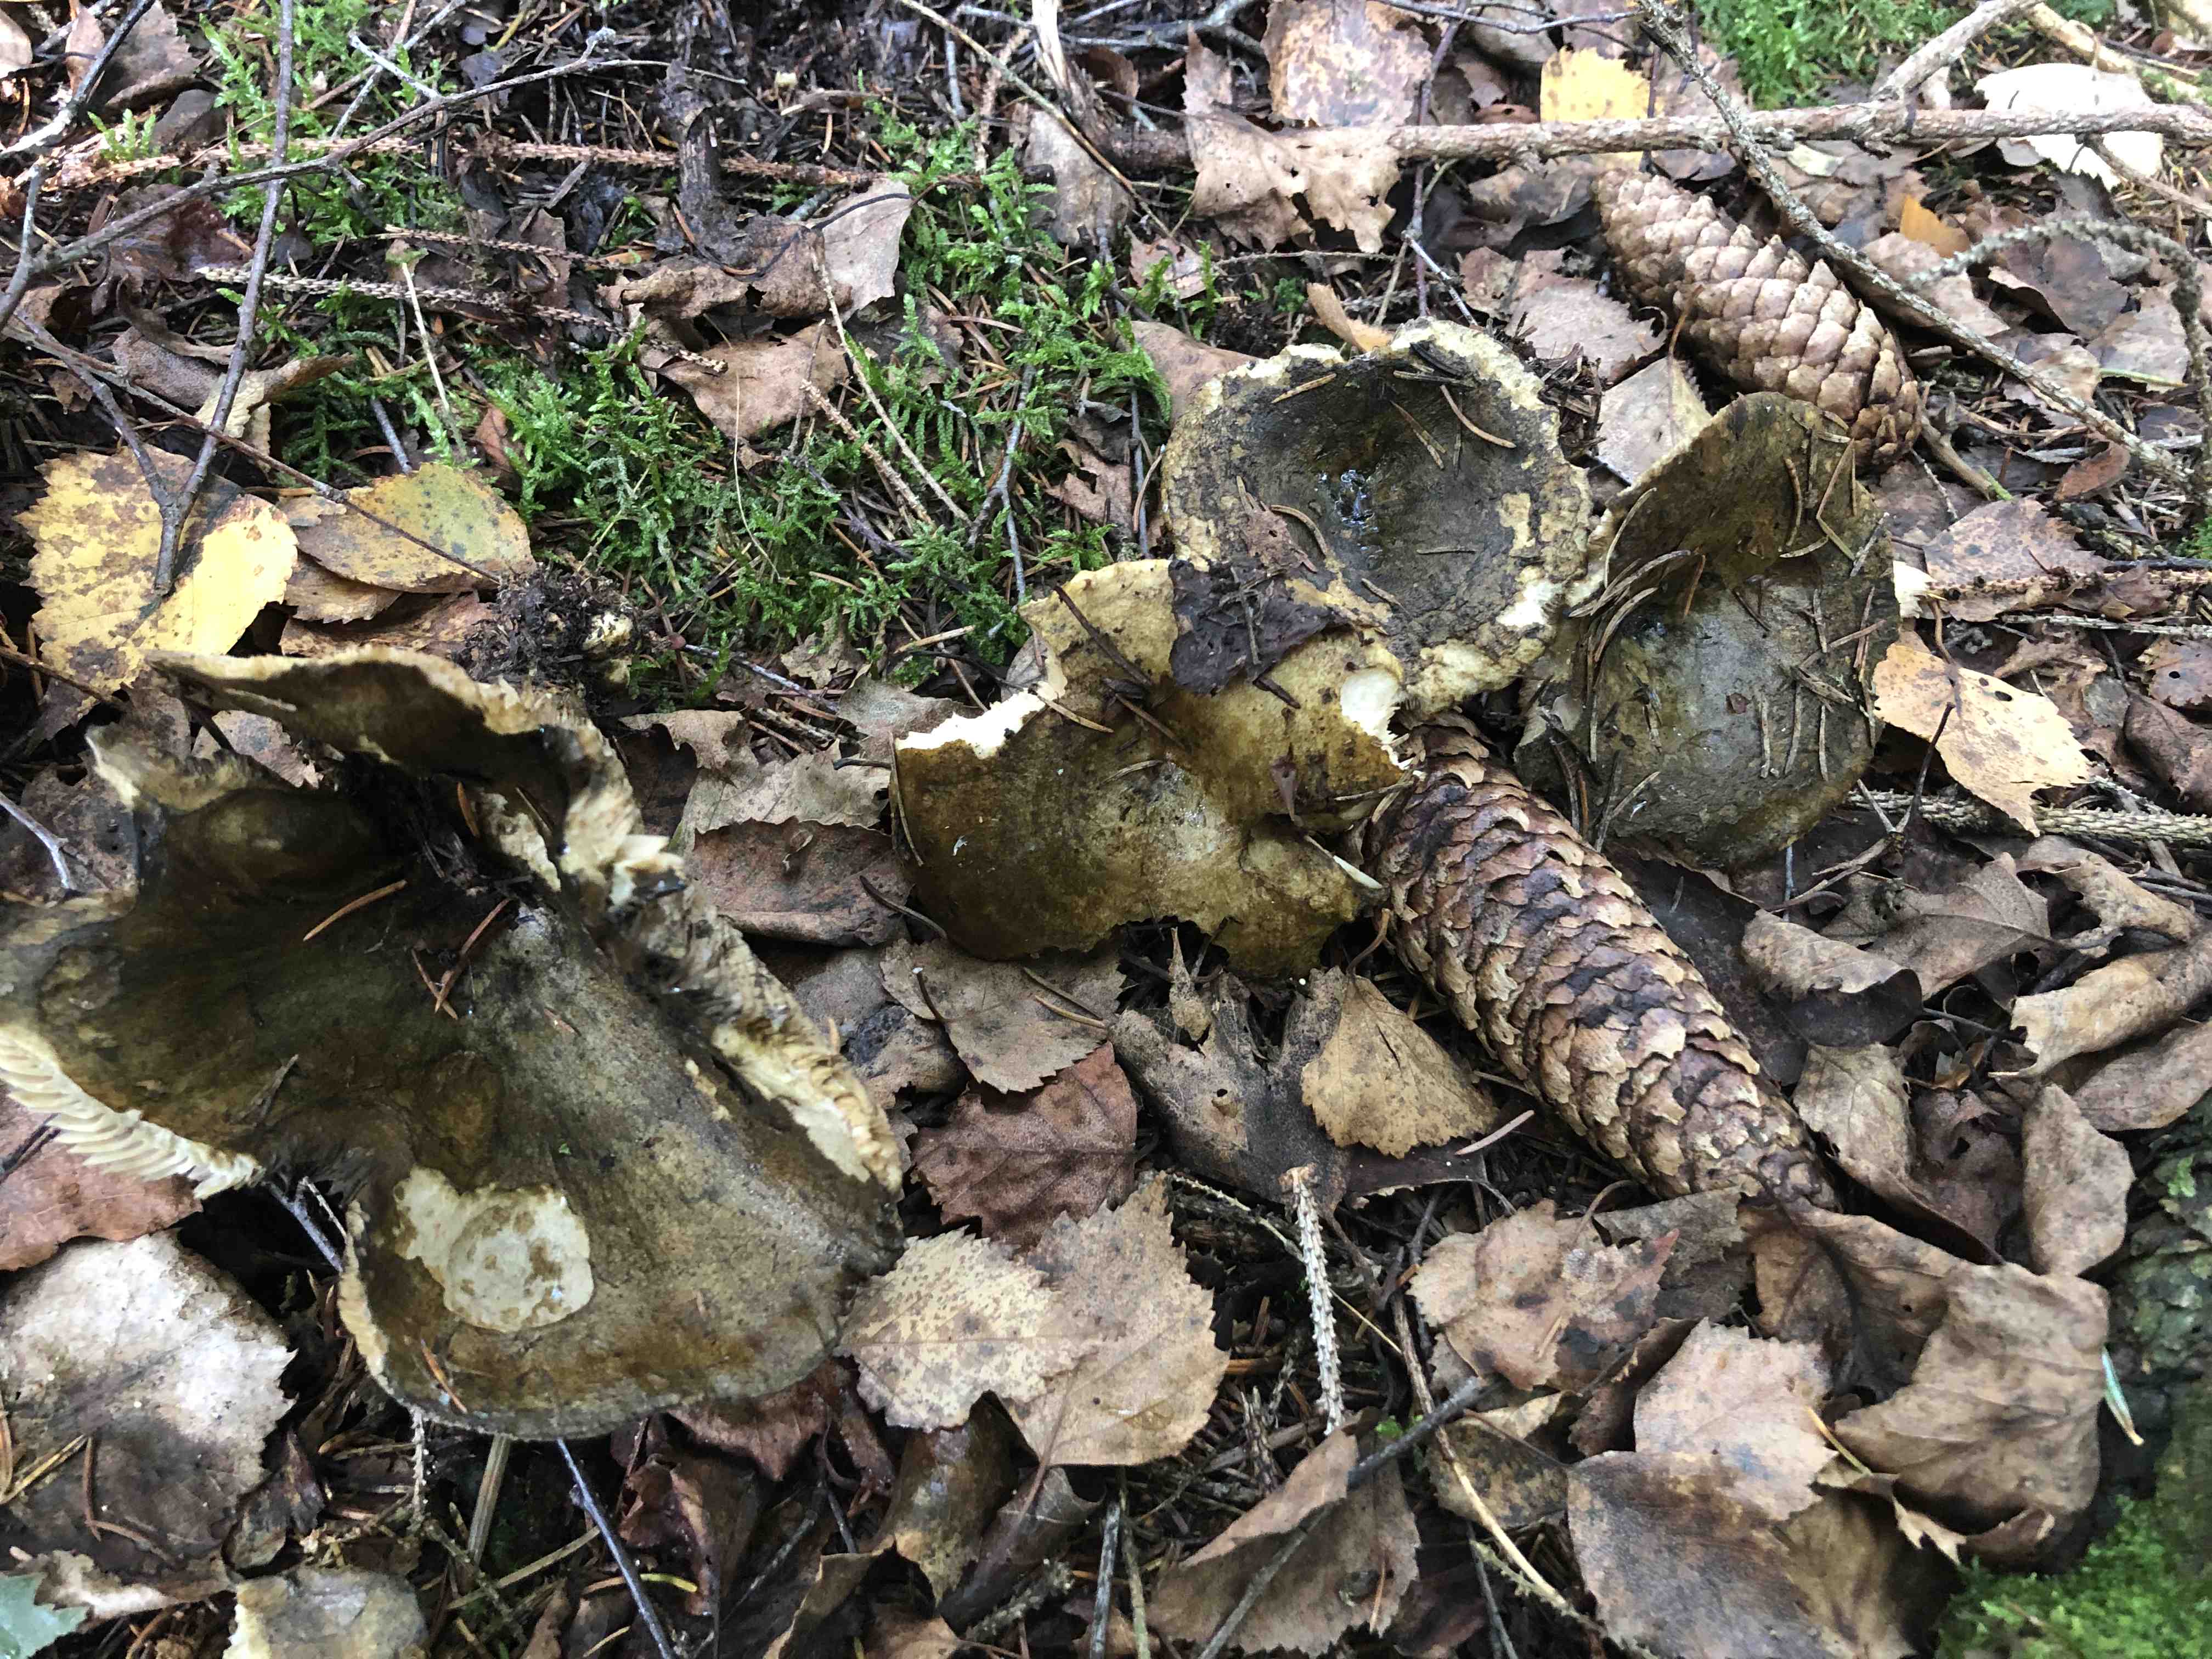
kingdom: Fungi
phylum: Basidiomycota
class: Agaricomycetes
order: Russulales
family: Russulaceae
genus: Lactarius
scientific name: Lactarius necator
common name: manddraber-mælkehat
